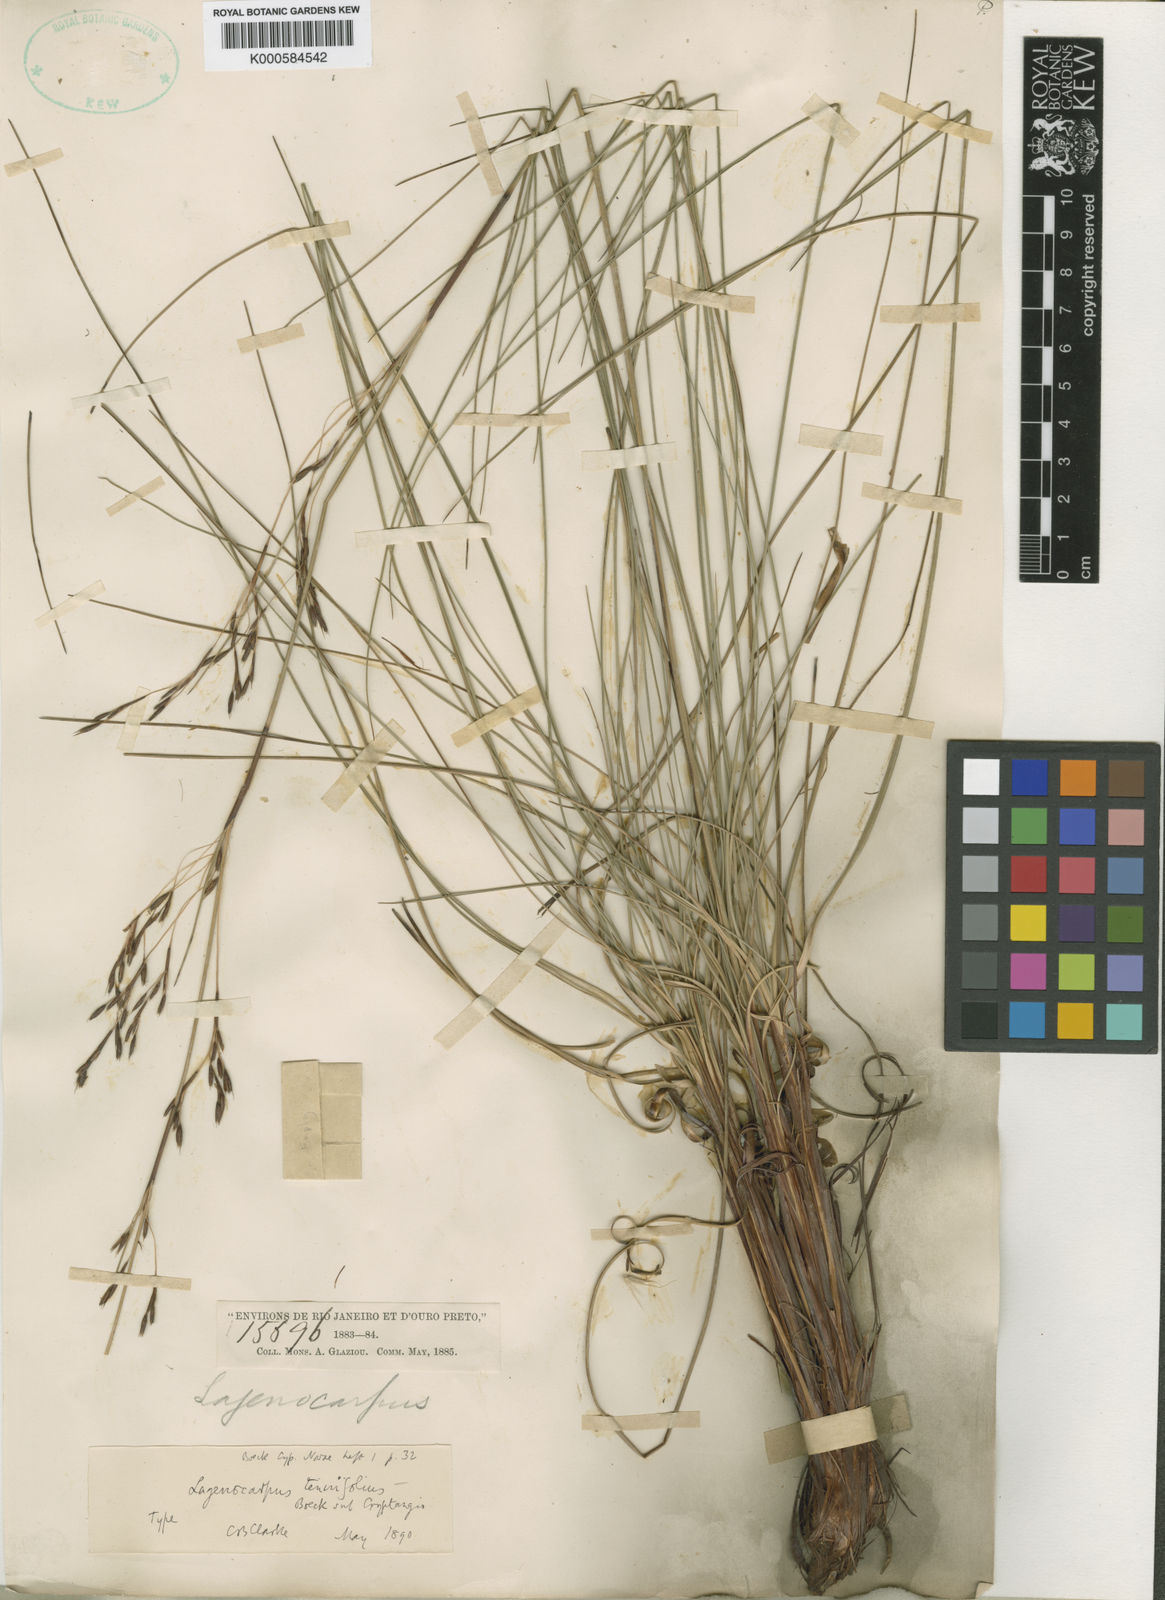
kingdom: Plantae
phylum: Tracheophyta
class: Liliopsida
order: Poales
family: Cyperaceae
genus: Lagenocarpus
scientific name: Lagenocarpus rigidus
